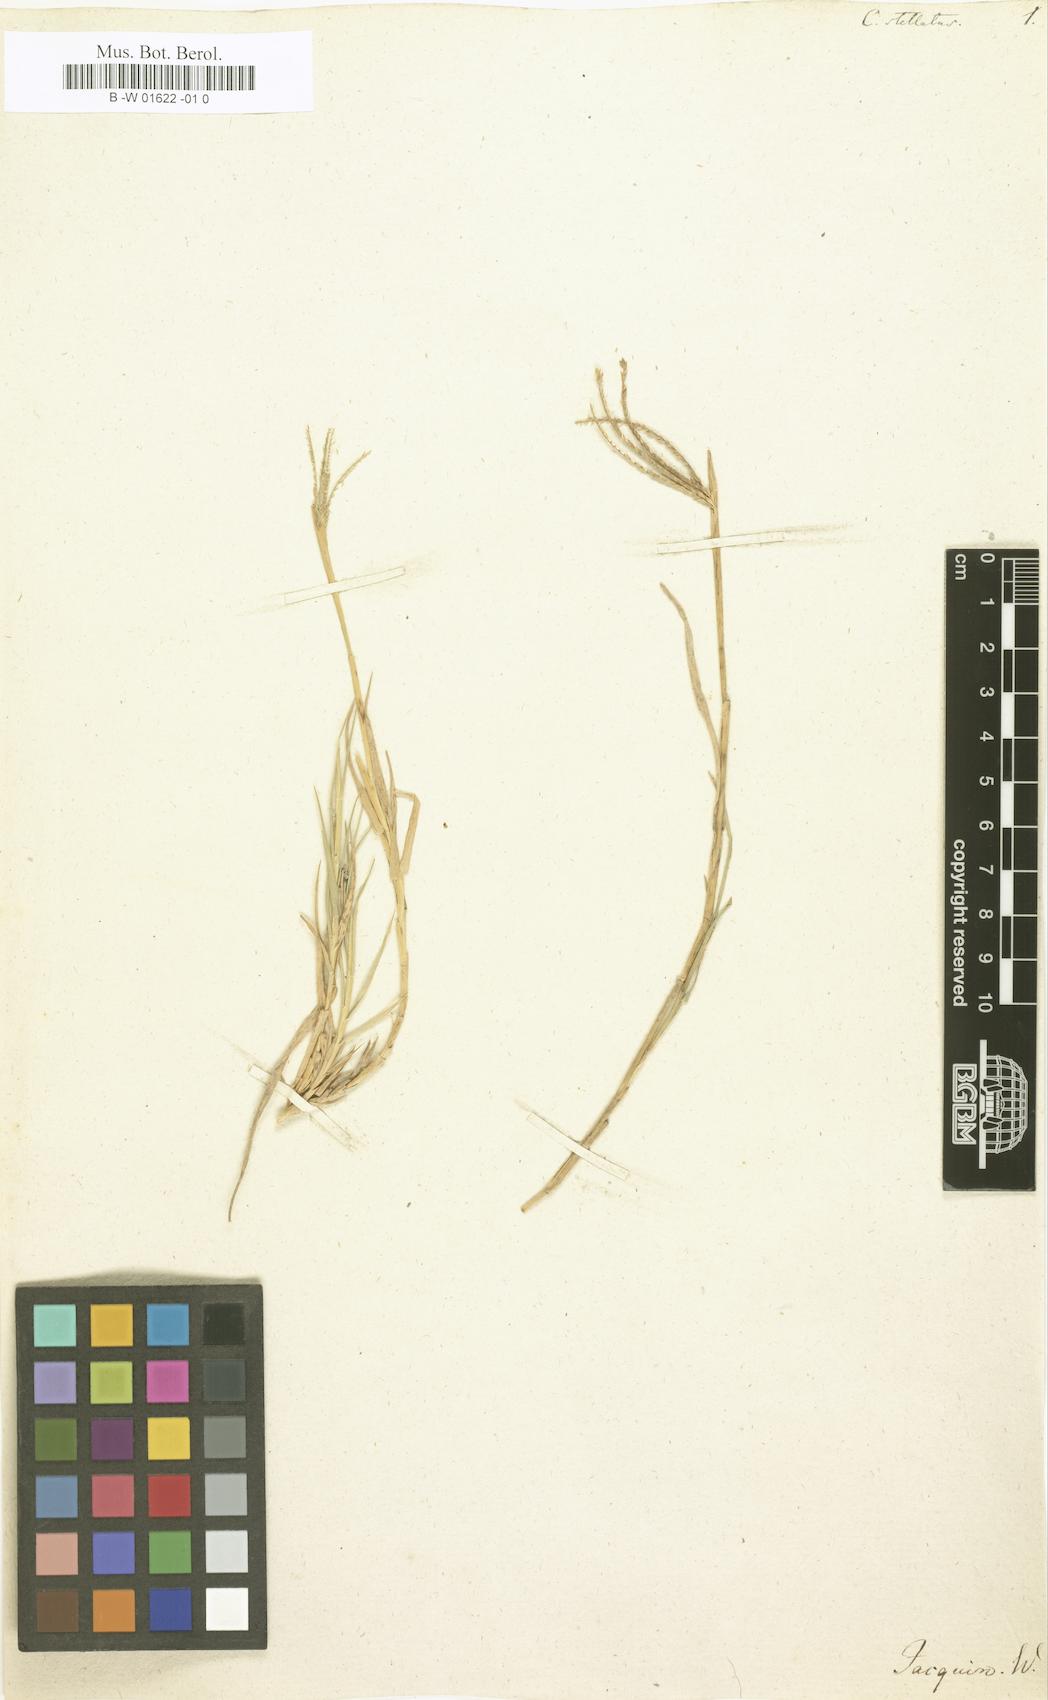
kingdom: Plantae
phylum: Tracheophyta
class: Liliopsida
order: Poales
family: Poaceae
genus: Cynodon
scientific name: Cynodon dactylon
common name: Bermuda grass
